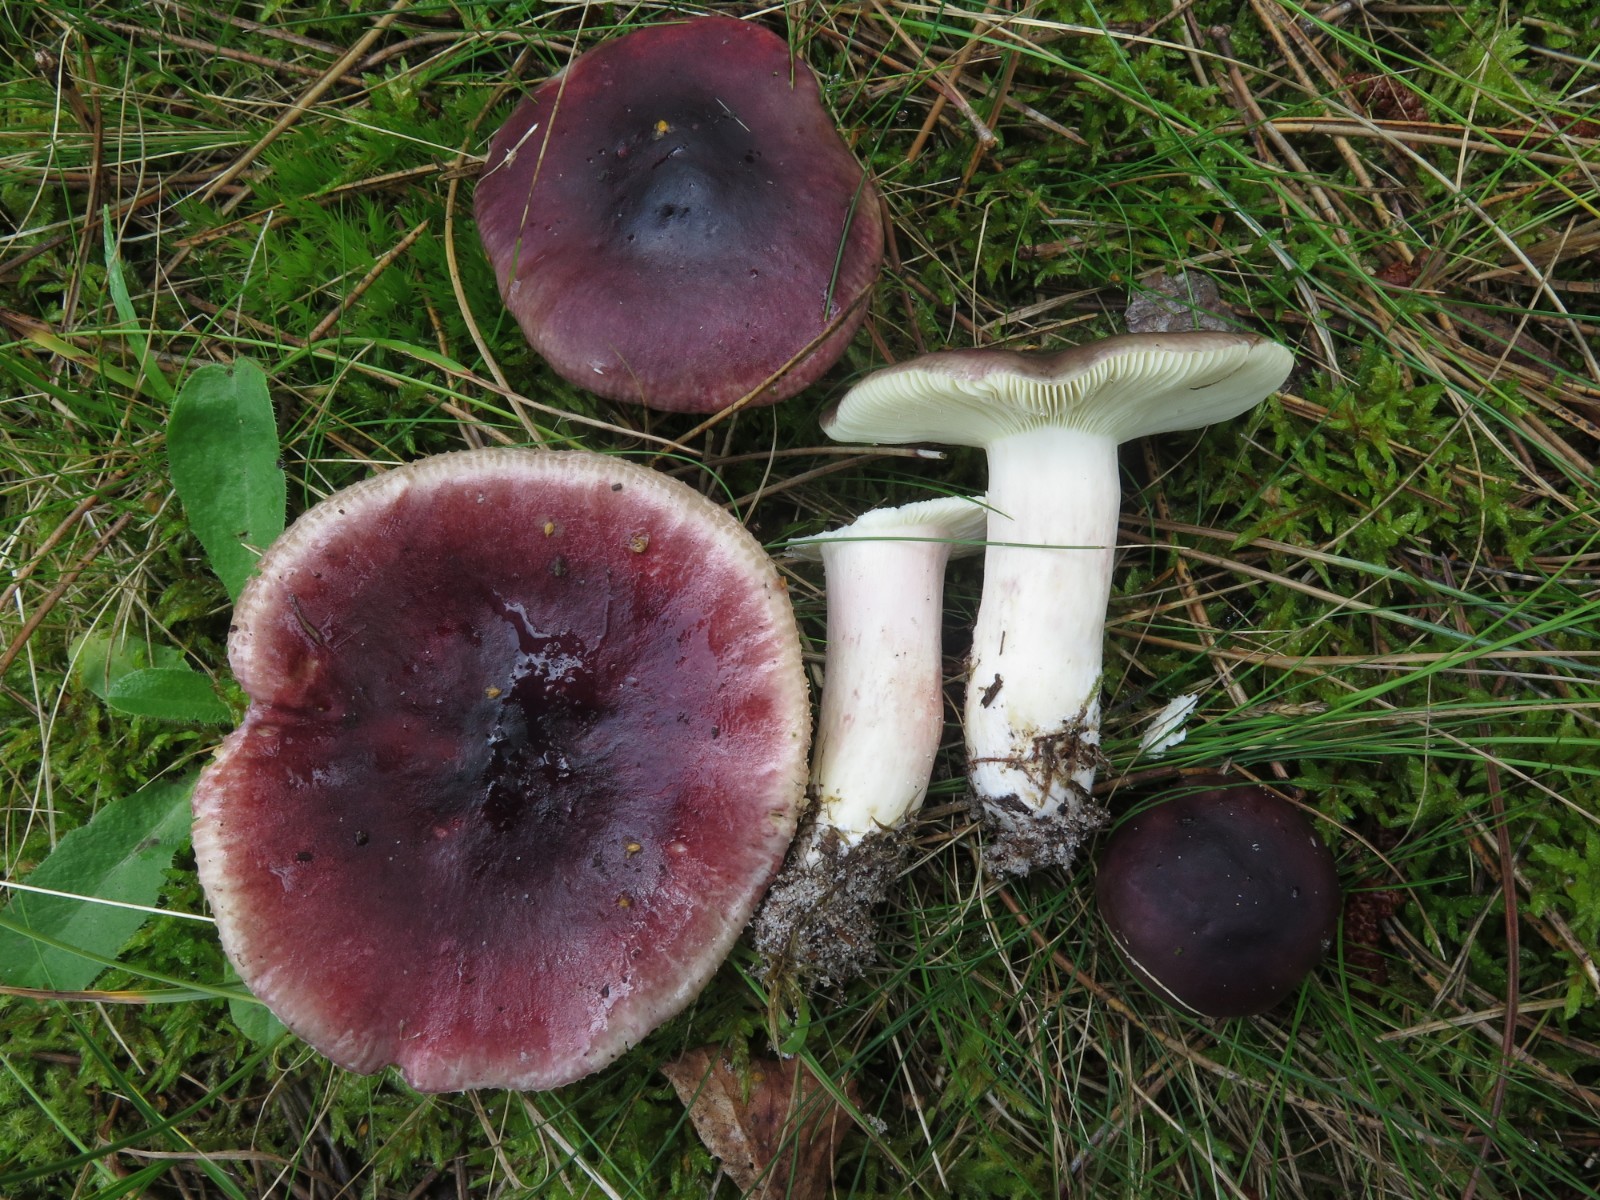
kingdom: Fungi
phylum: Basidiomycota
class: Agaricomycetes
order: Russulales
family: Russulaceae
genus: Russula
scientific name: Russula caerulea
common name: puklet skørhat
